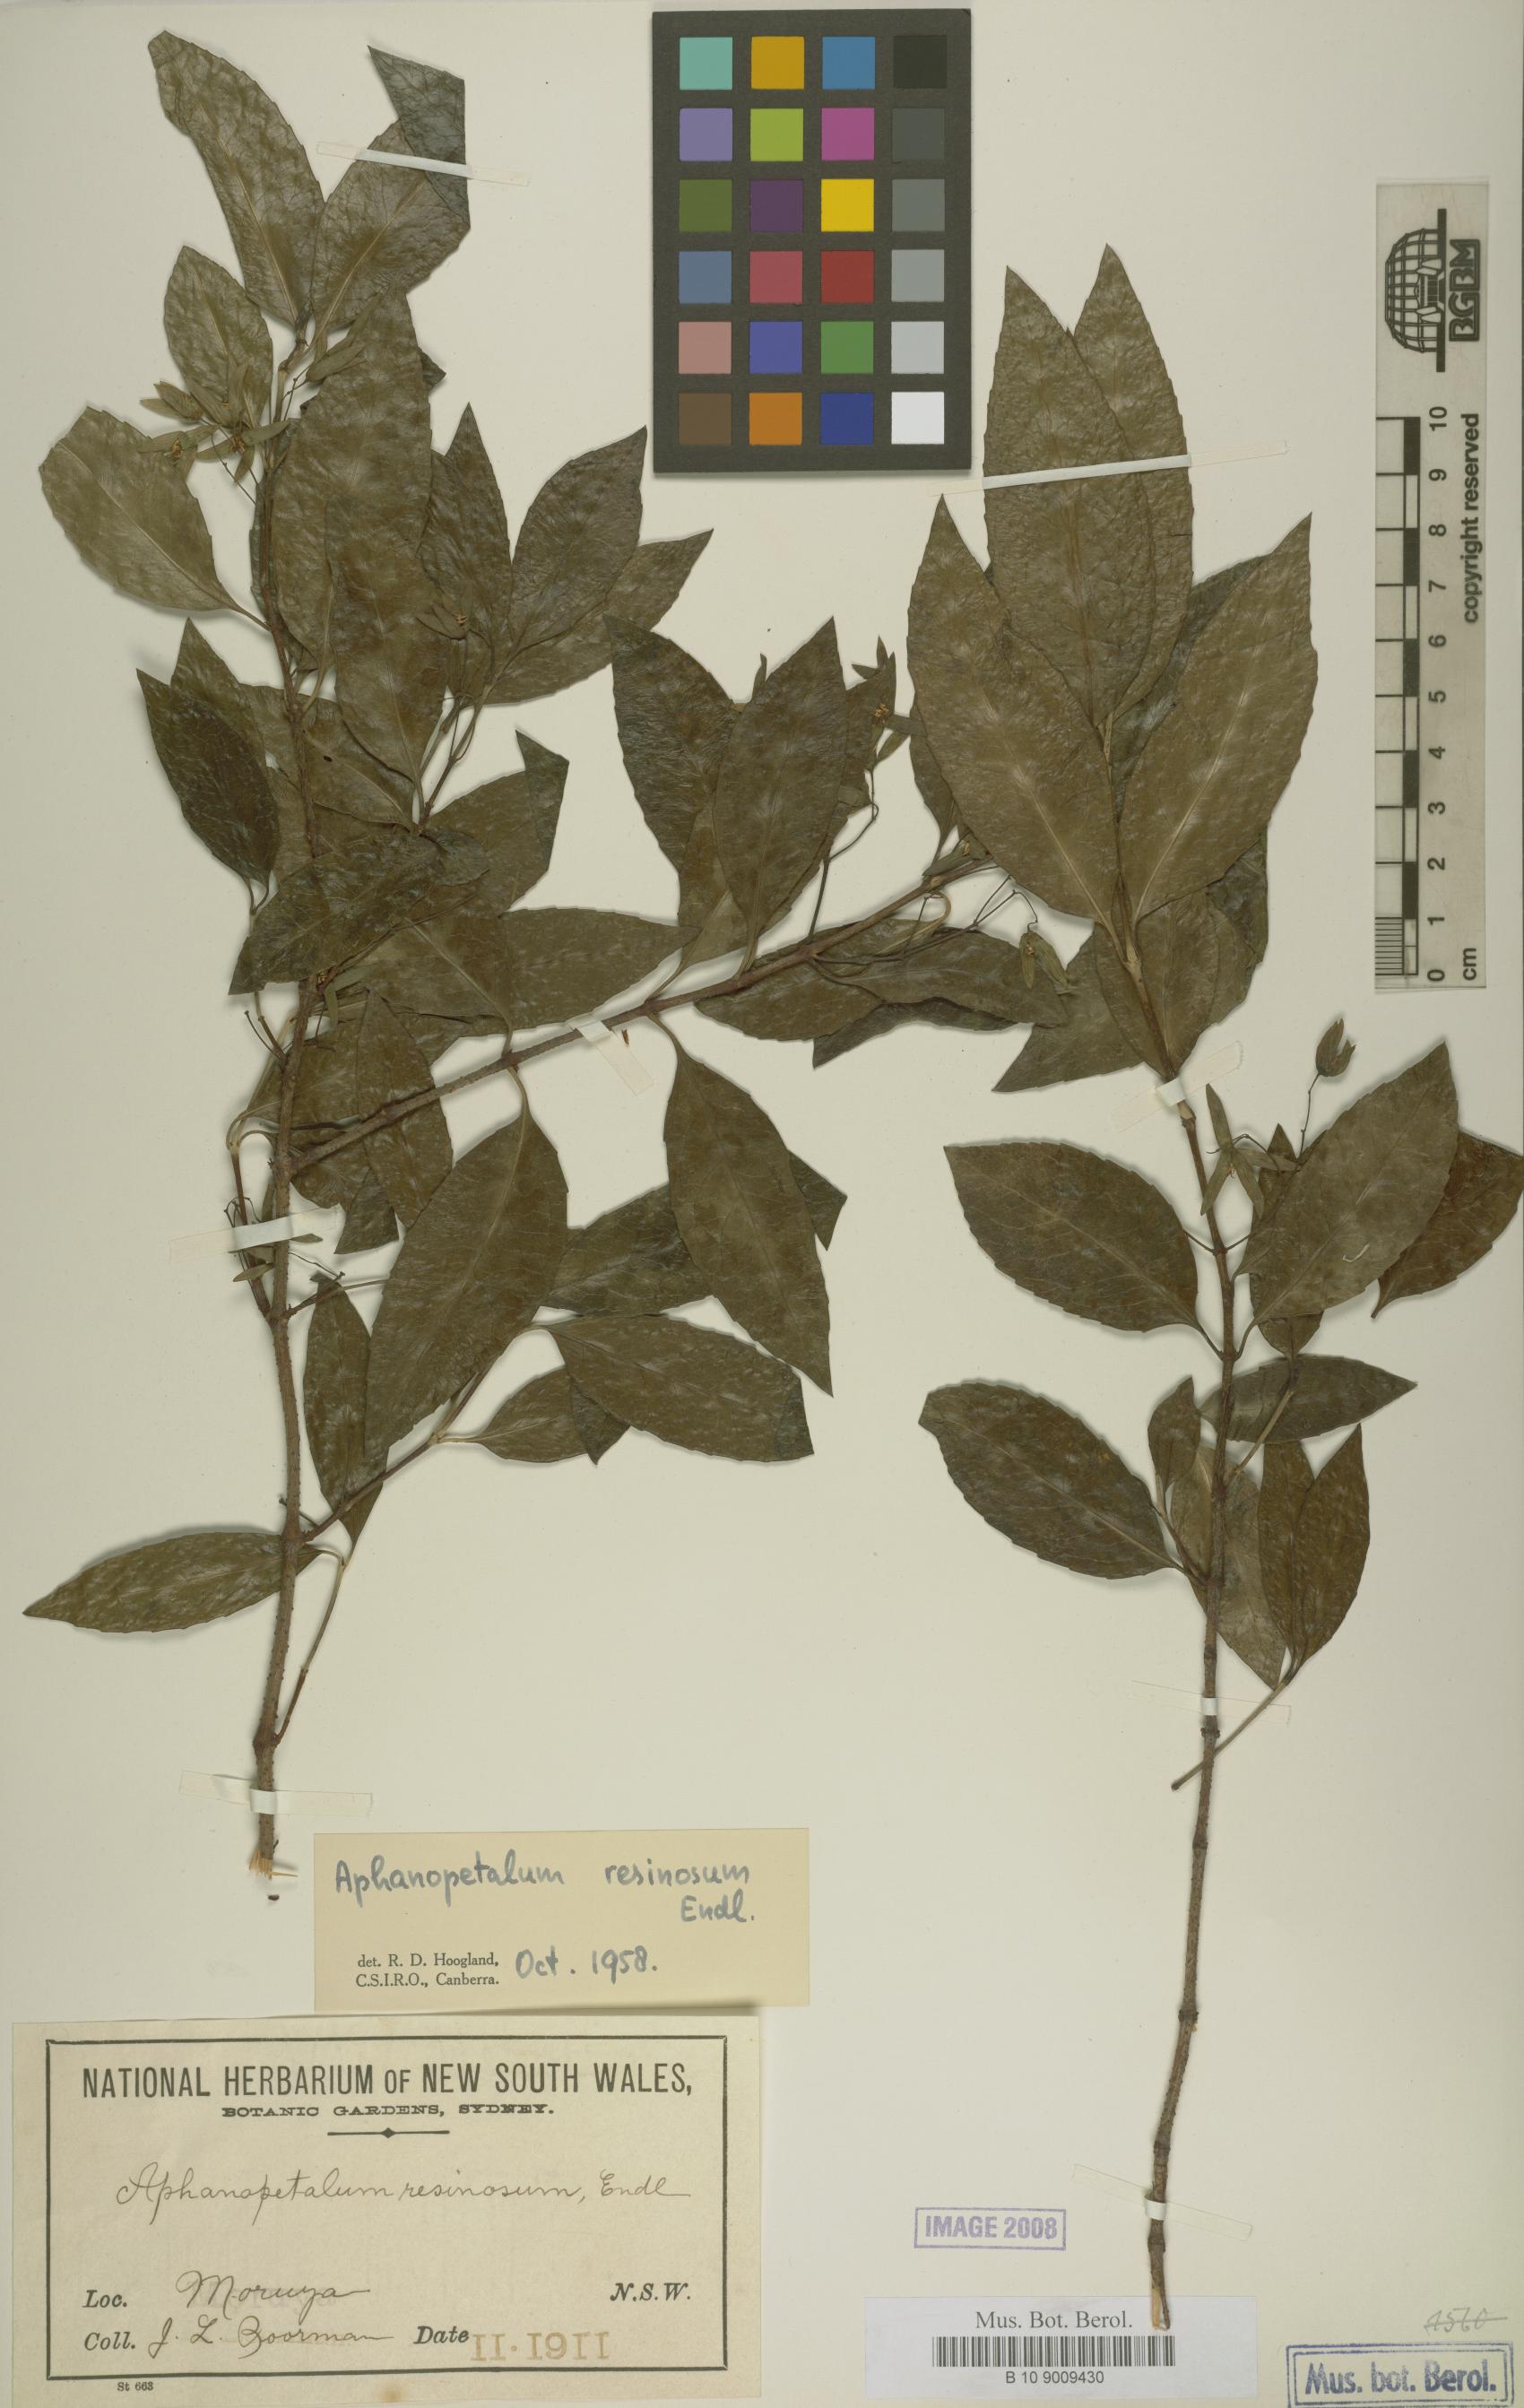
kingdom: Plantae
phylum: Tracheophyta
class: Magnoliopsida
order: Saxifragales
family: Aphanopetalaceae
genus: Aphanopetalum
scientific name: Aphanopetalum resinosum
